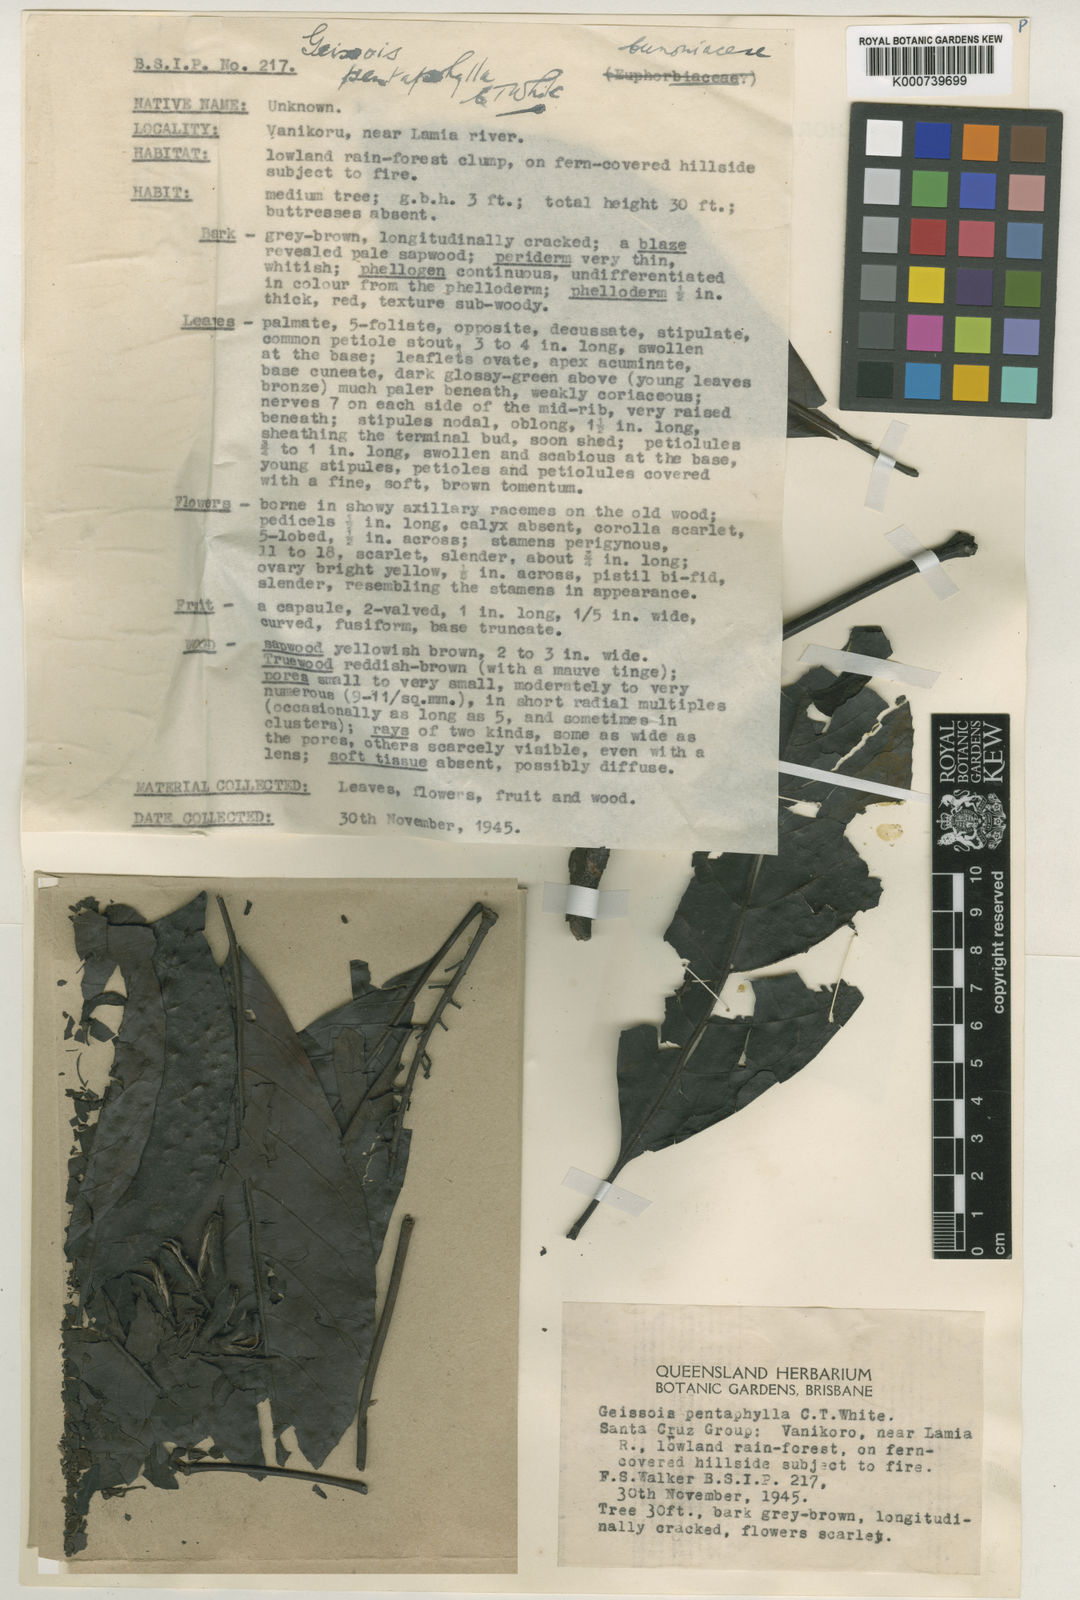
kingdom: Plantae
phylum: Tracheophyta
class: Magnoliopsida
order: Oxalidales
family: Cunoniaceae
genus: Geissois
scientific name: Geissois pentaphylla
